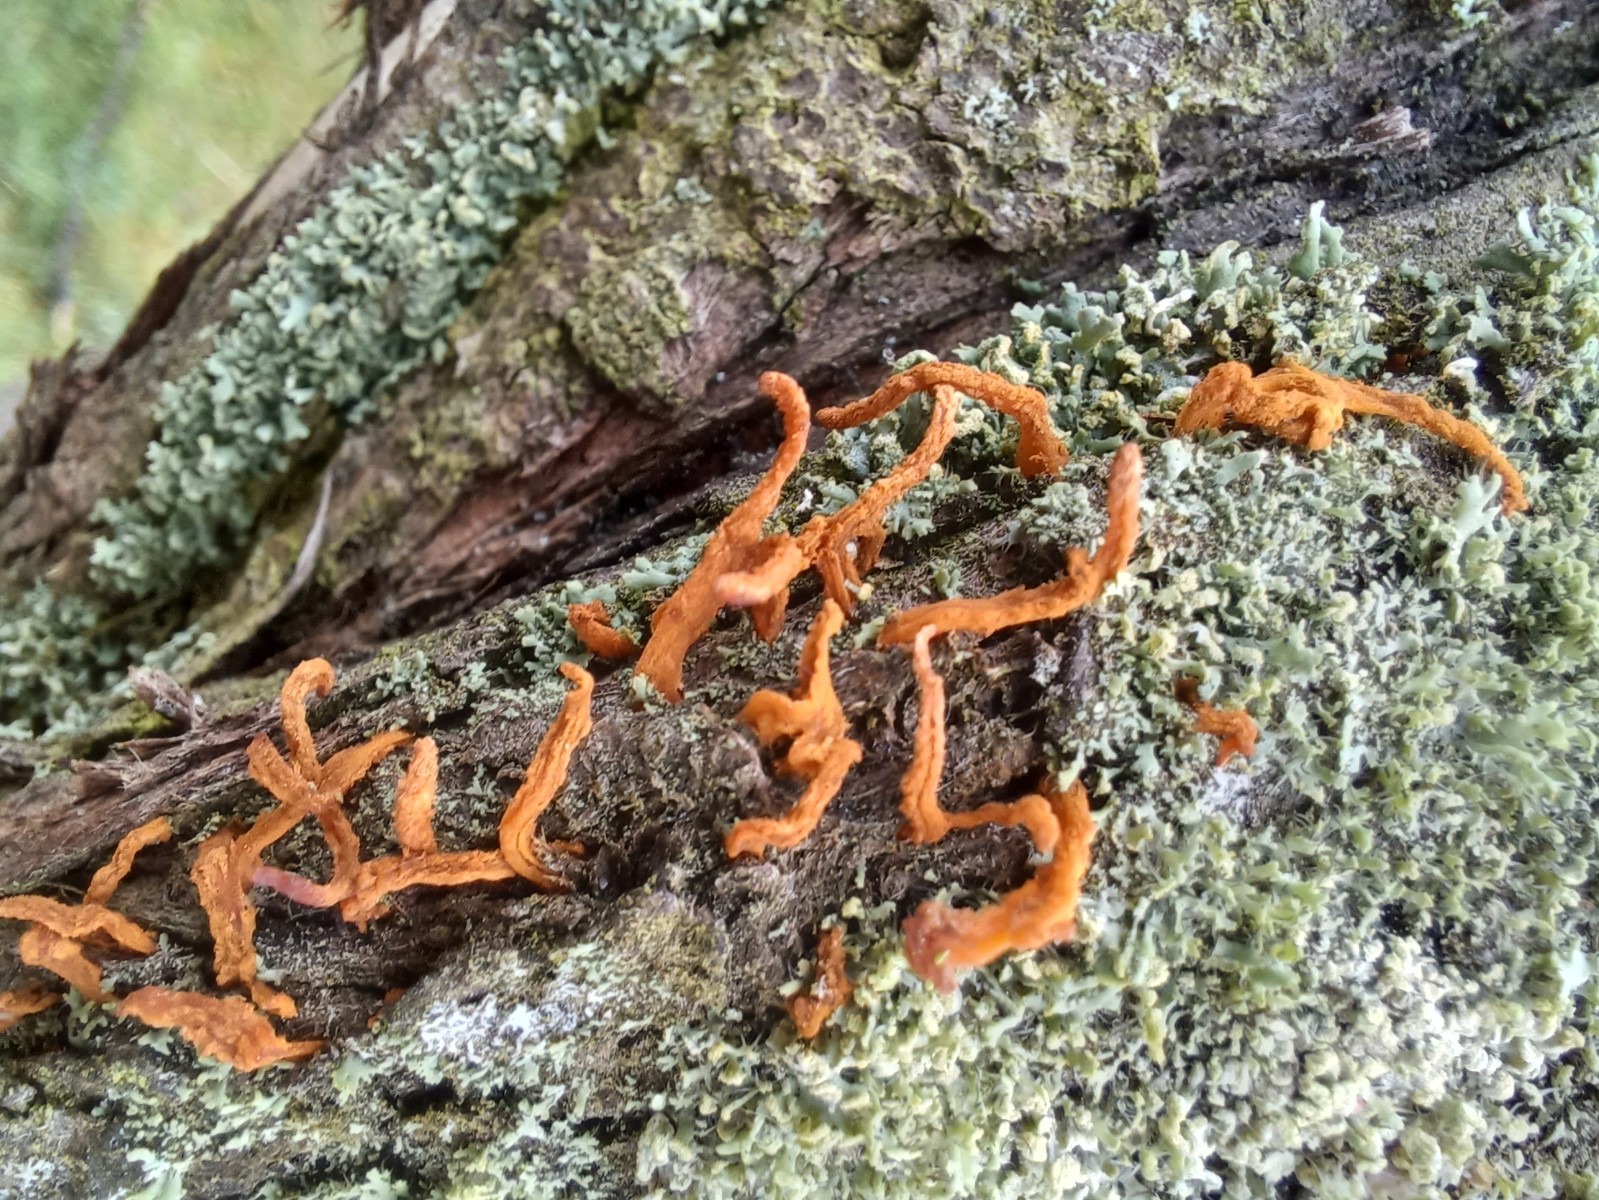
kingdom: Fungi
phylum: Basidiomycota
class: Pucciniomycetes
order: Pucciniales
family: Gymnosporangiaceae
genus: Gymnosporangium
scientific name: Gymnosporangium clavariiforme
